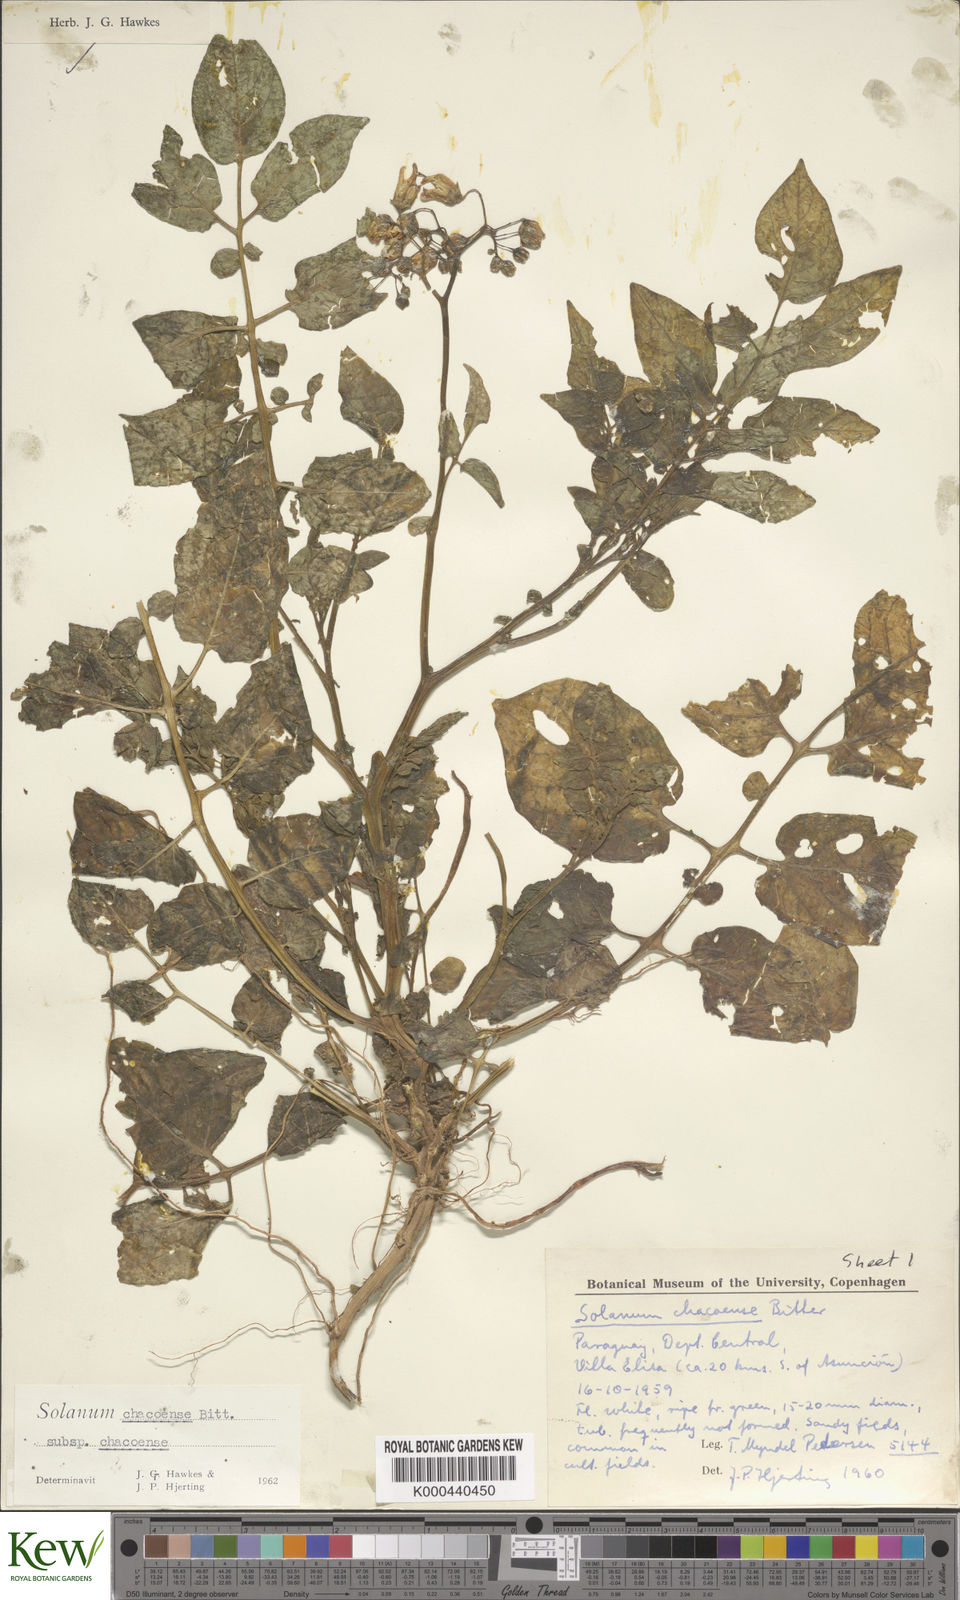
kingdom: Plantae
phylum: Tracheophyta
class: Magnoliopsida
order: Solanales
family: Solanaceae
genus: Solanum
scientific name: Solanum chacoense
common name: Chaco potato
